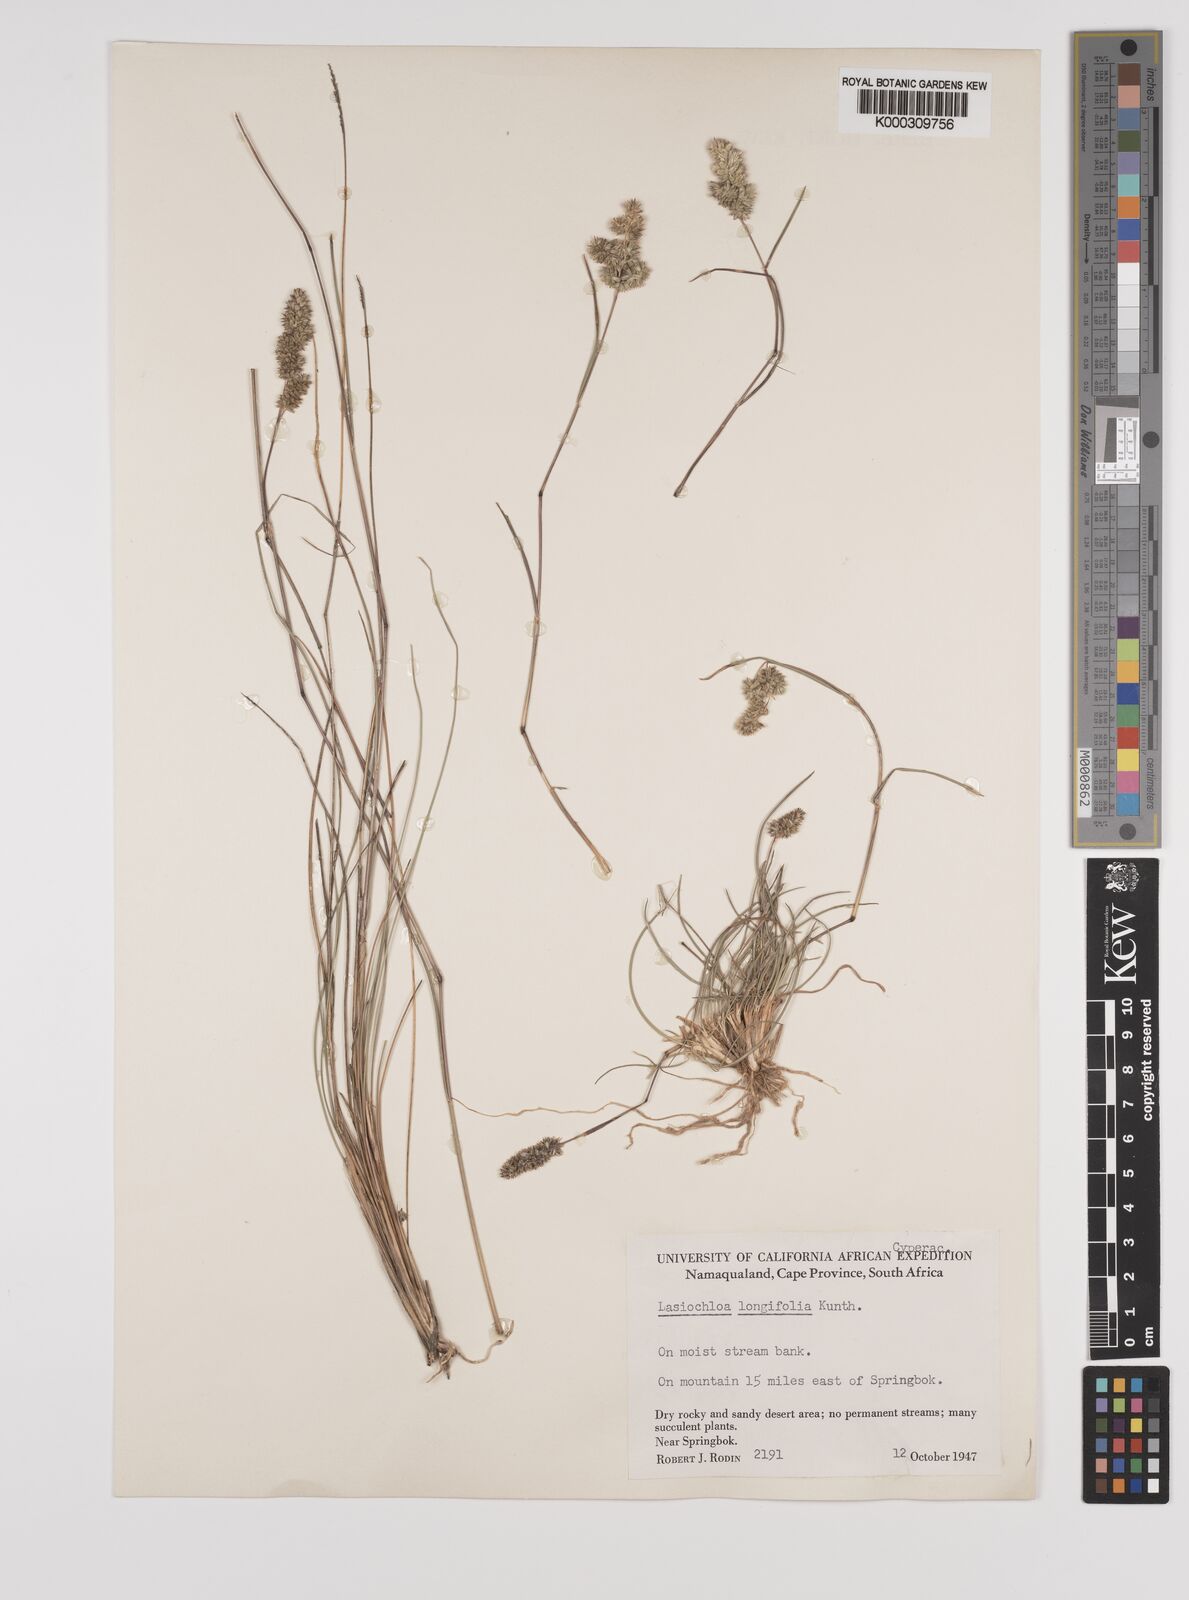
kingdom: Plantae
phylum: Tracheophyta
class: Liliopsida
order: Poales
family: Poaceae
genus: Tribolium
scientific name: Tribolium hispidum
